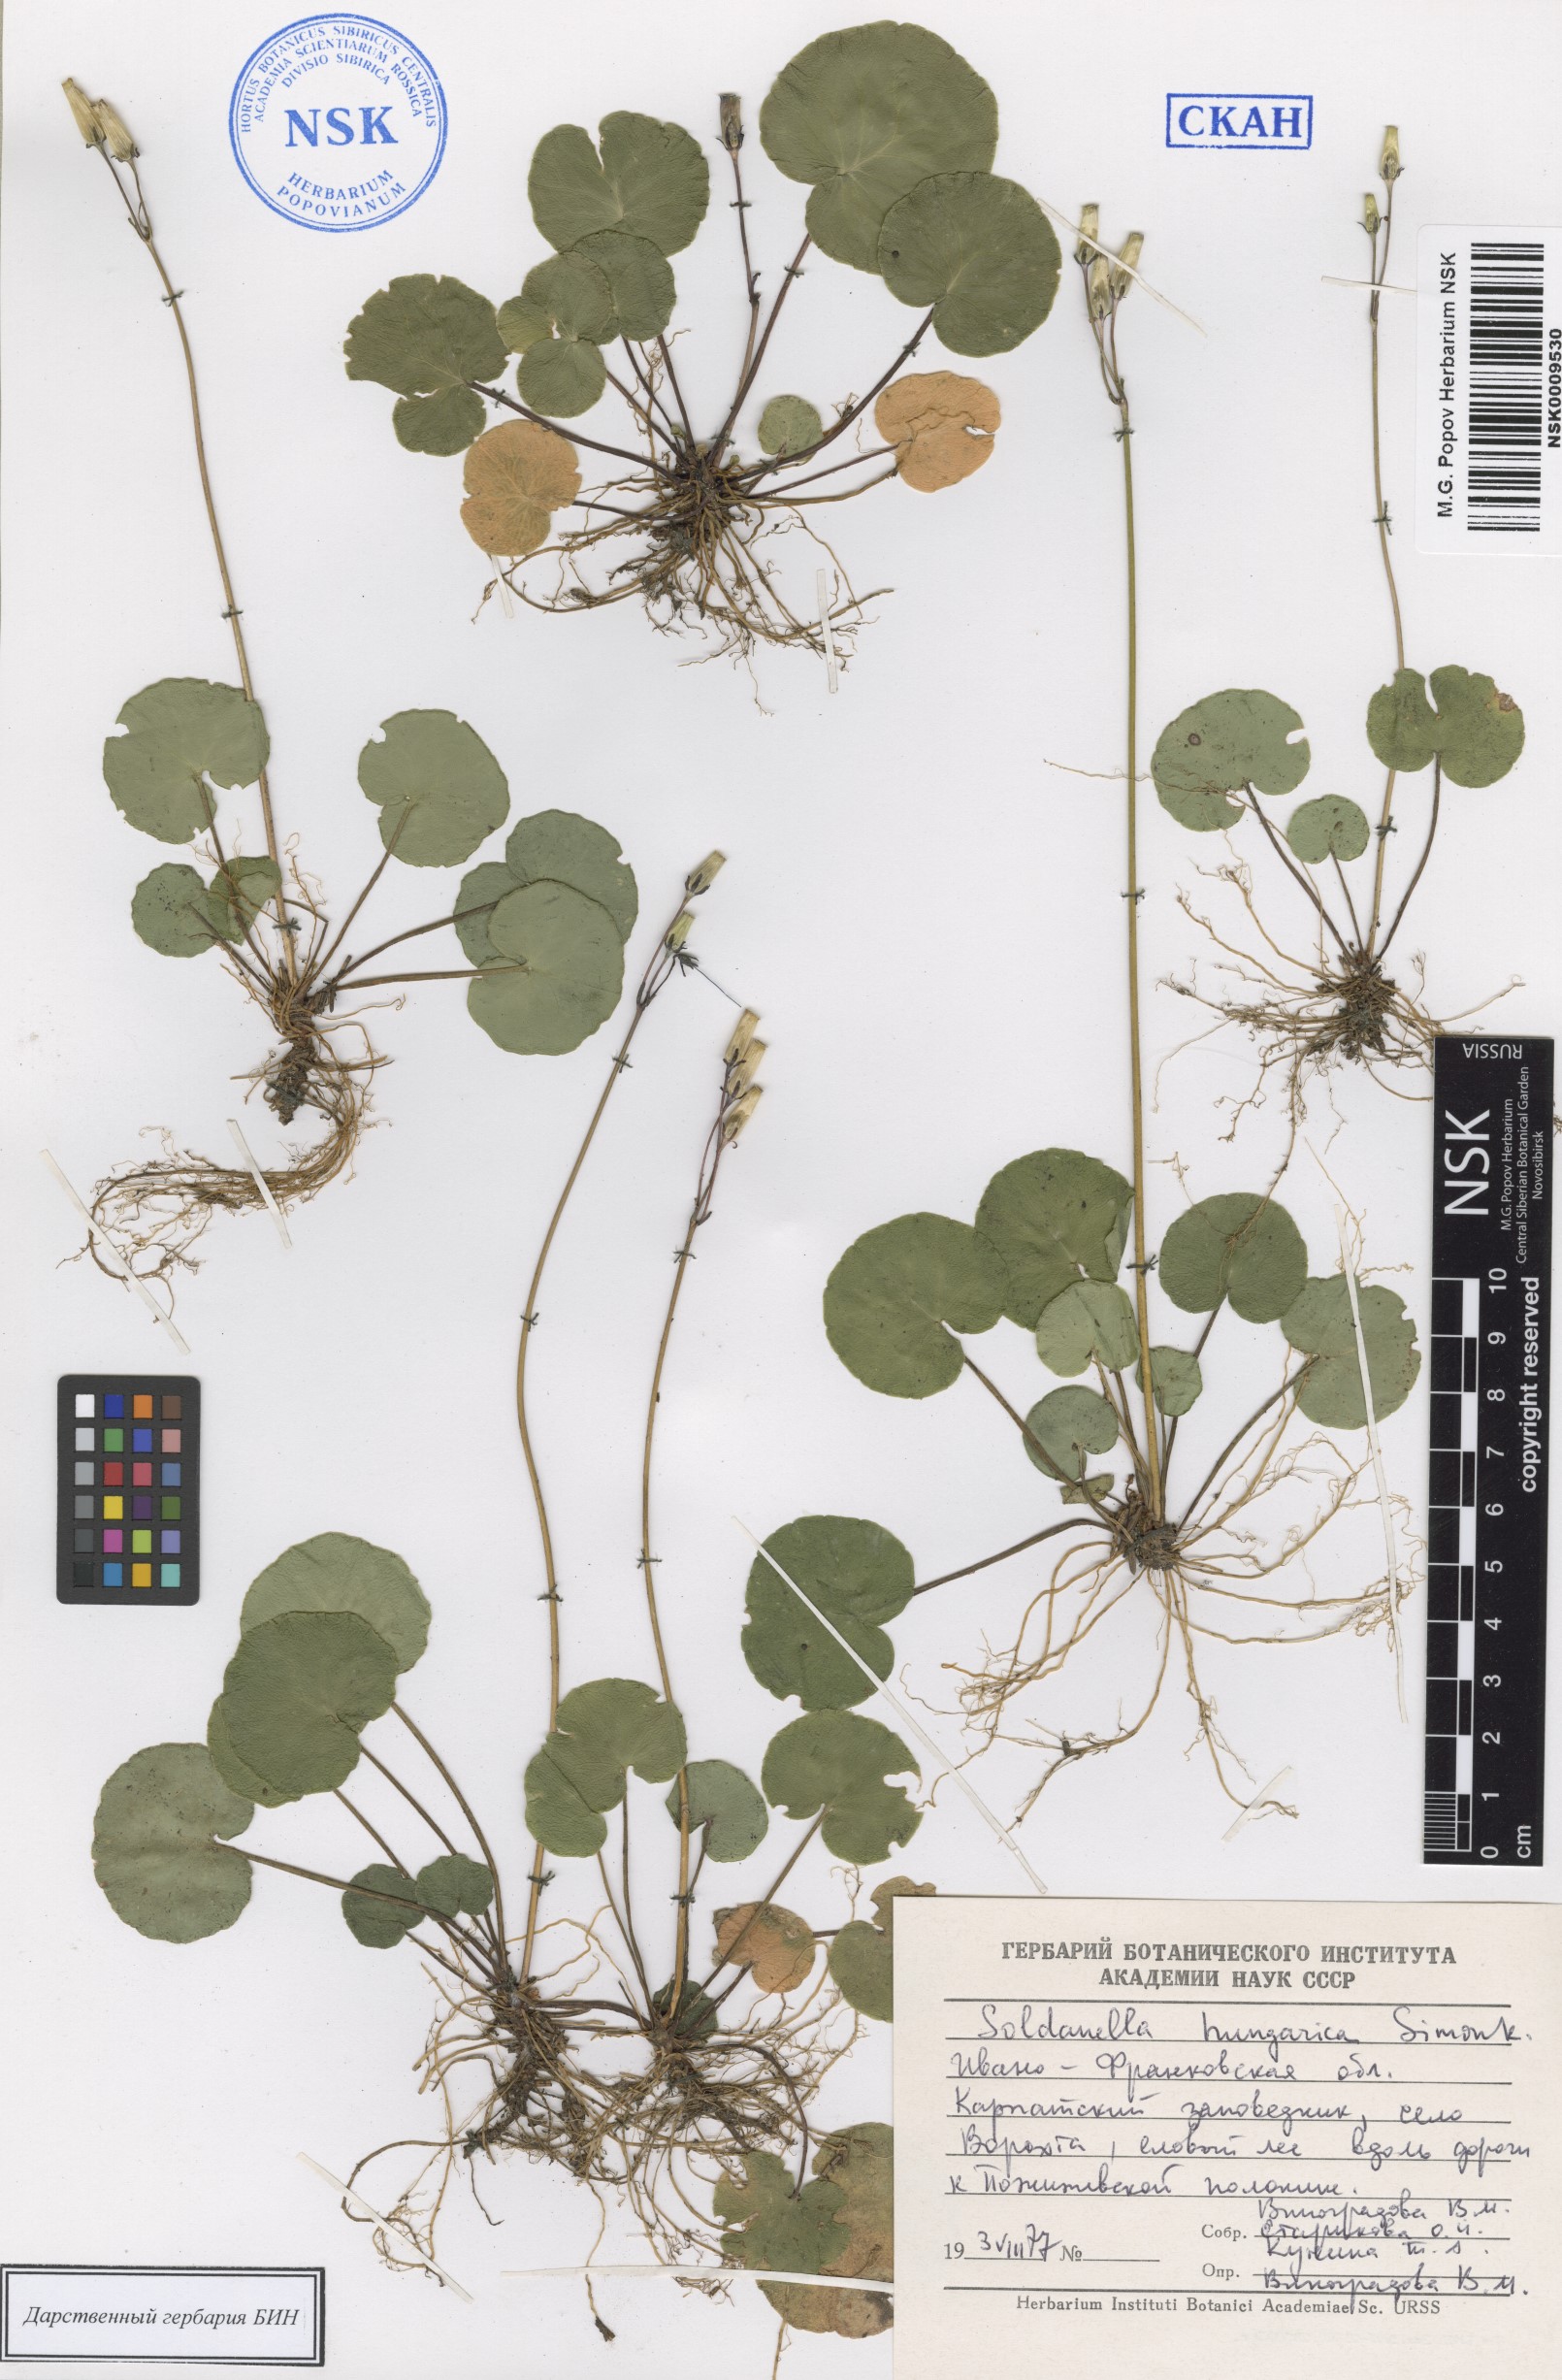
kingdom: Plantae
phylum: Tracheophyta
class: Magnoliopsida
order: Ericales
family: Primulaceae
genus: Soldanella
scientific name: Soldanella hungarica
